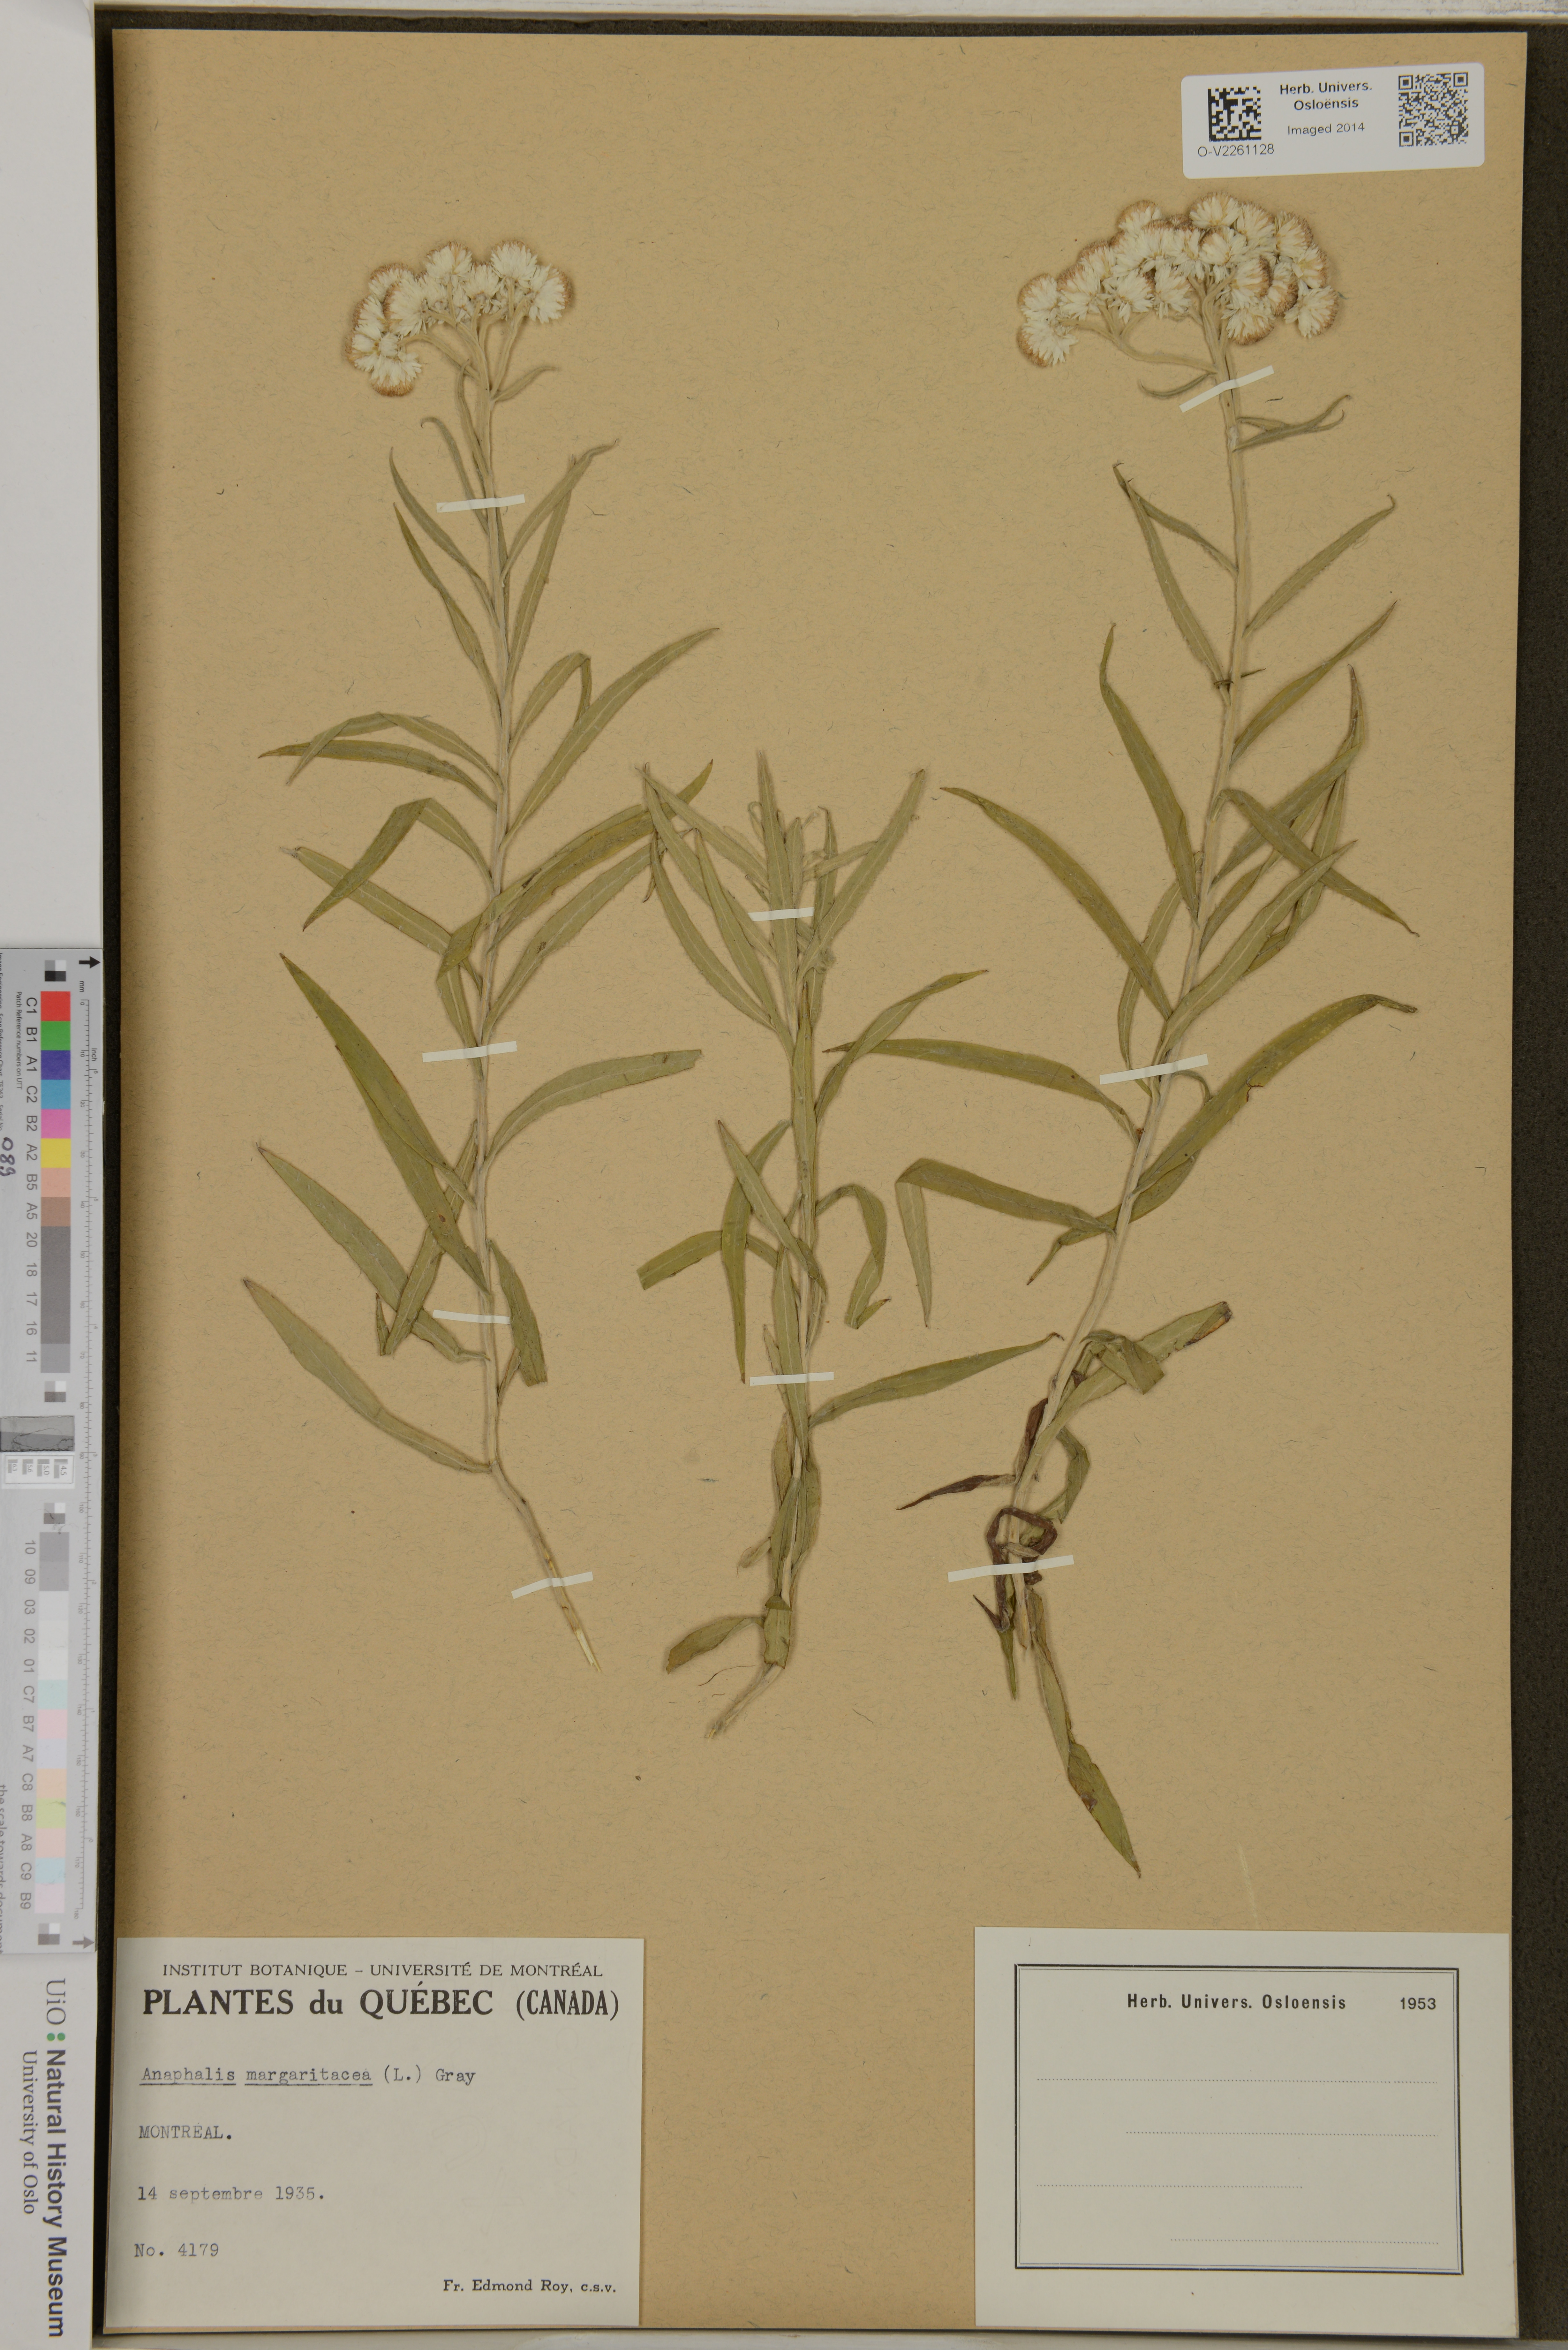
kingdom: Plantae
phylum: Tracheophyta
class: Magnoliopsida
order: Asterales
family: Asteraceae
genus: Anaphalis
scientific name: Anaphalis margaritacea
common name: Pearly everlasting
